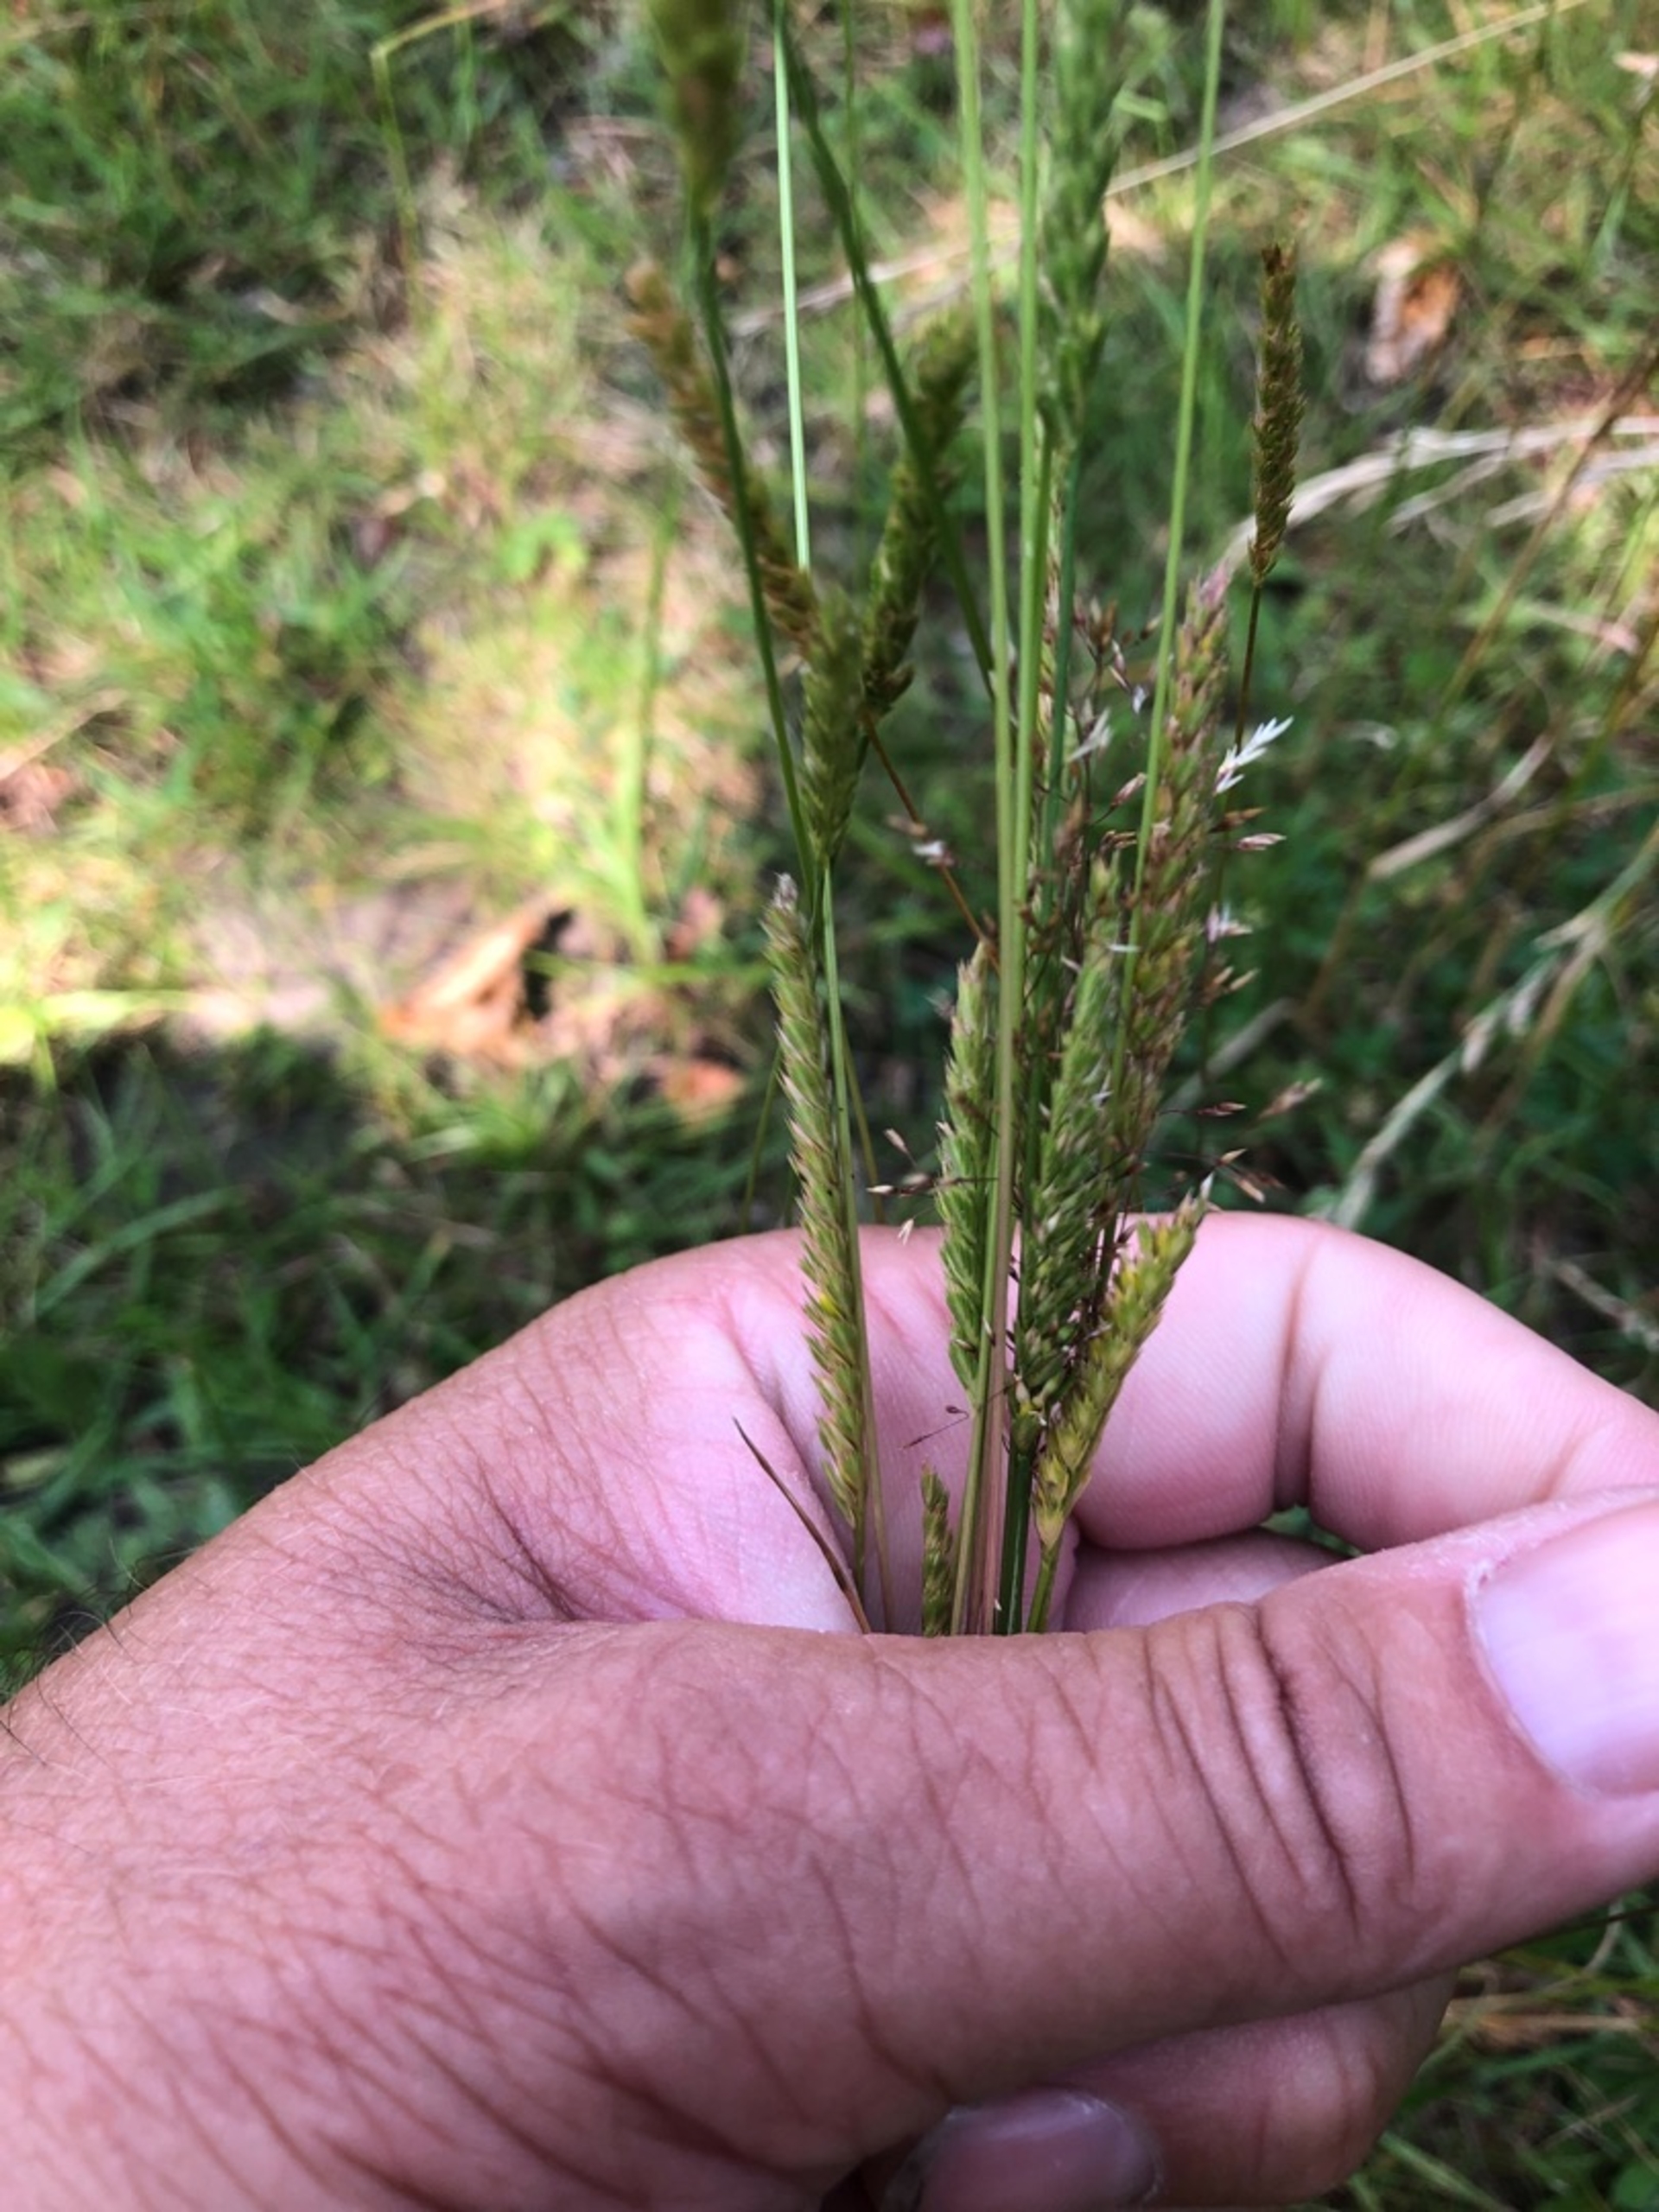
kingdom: Plantae
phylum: Tracheophyta
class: Liliopsida
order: Poales
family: Poaceae
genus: Cynosurus
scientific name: Cynosurus cristatus
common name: Kamgræs
